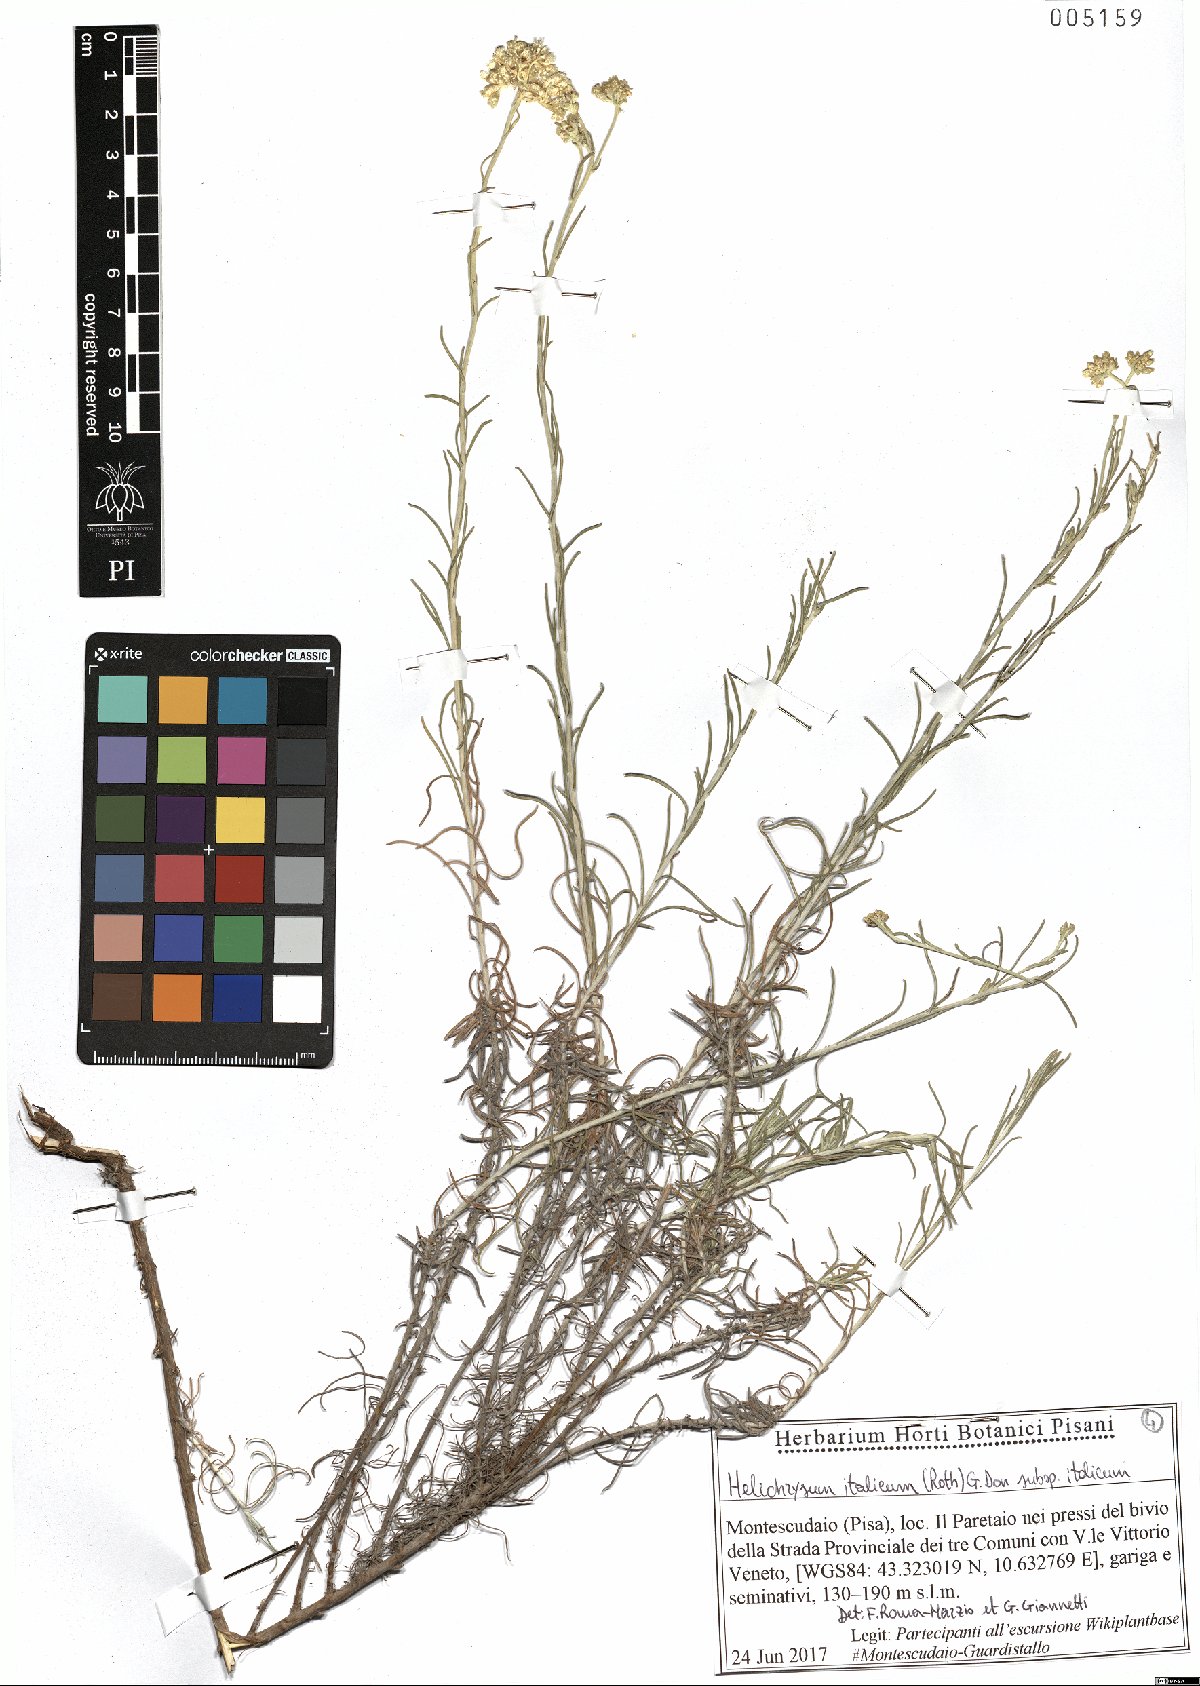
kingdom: Plantae
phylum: Tracheophyta
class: Magnoliopsida
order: Asterales
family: Asteraceae
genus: Helichrysum
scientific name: Helichrysum italicum
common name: Curryplant
